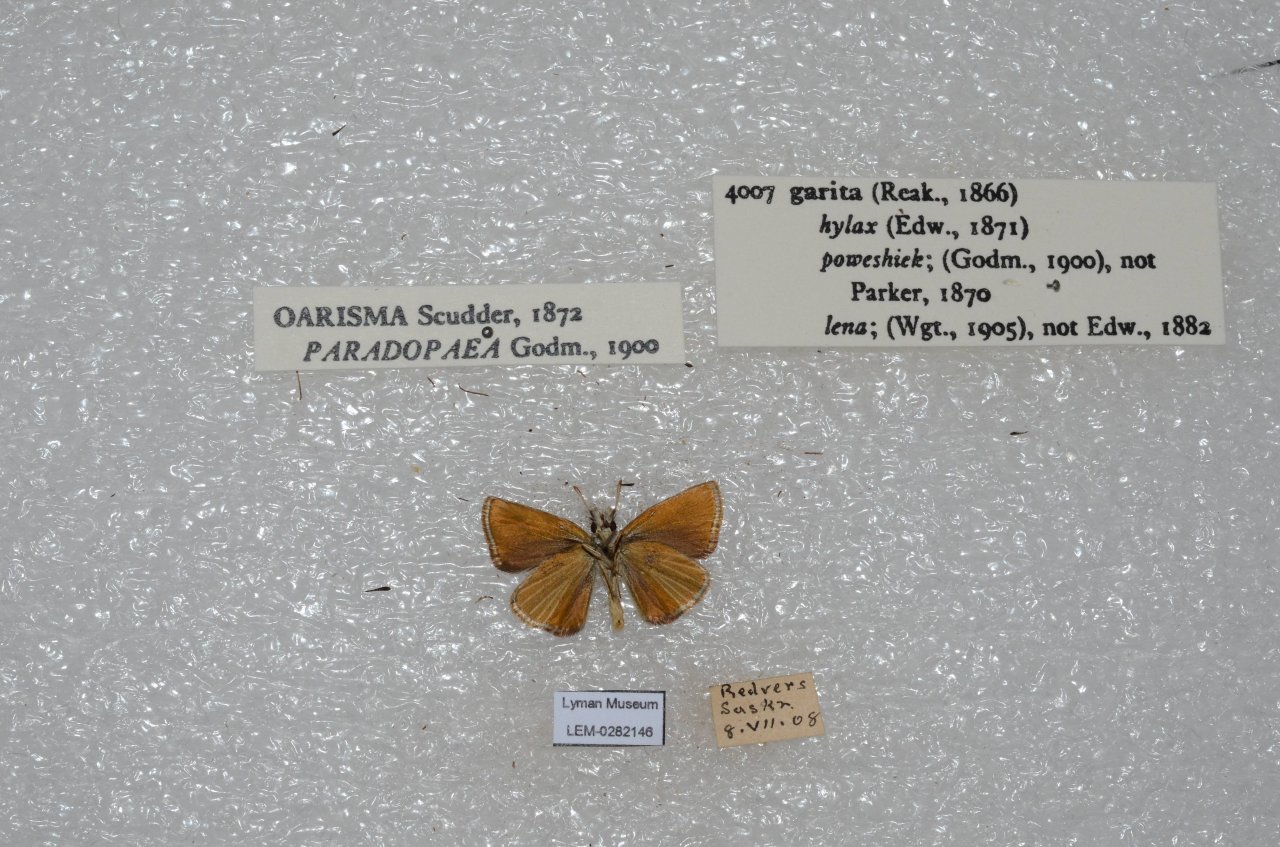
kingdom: Animalia
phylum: Arthropoda
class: Insecta
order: Lepidoptera
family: Hesperiidae
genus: Oarisma
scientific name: Oarisma garita
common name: Garita Skipperling
